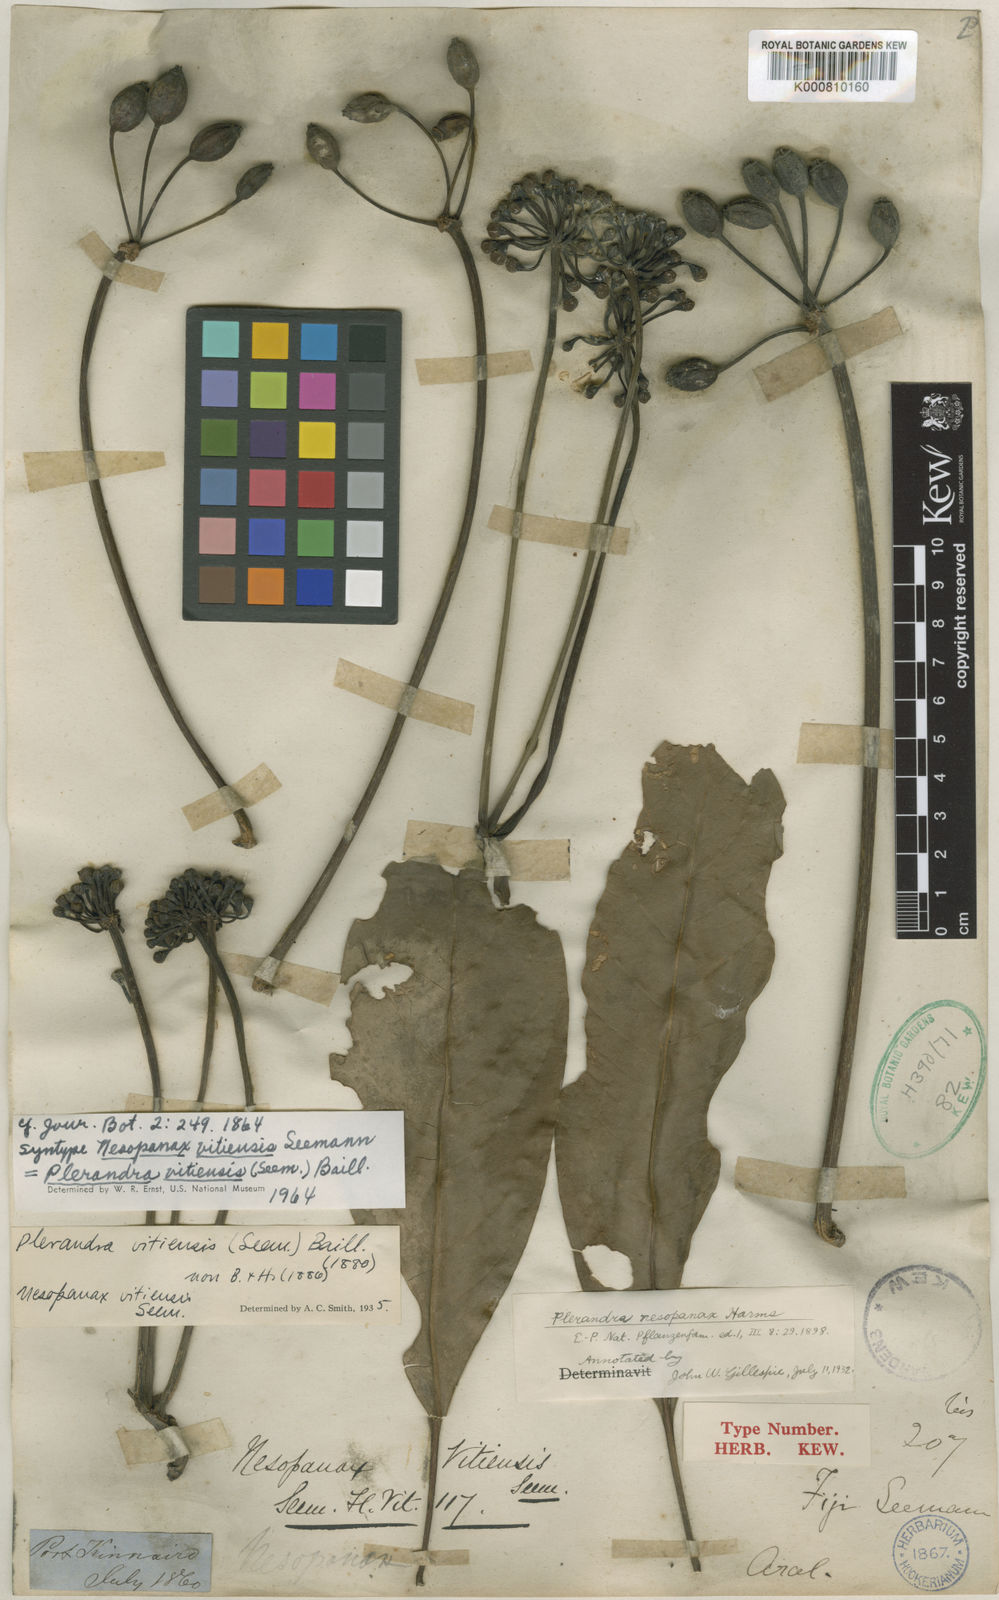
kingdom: Plantae
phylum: Tracheophyta
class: Magnoliopsida
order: Apiales
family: Araliaceae
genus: Schefflera
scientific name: Schefflera vitiensis
